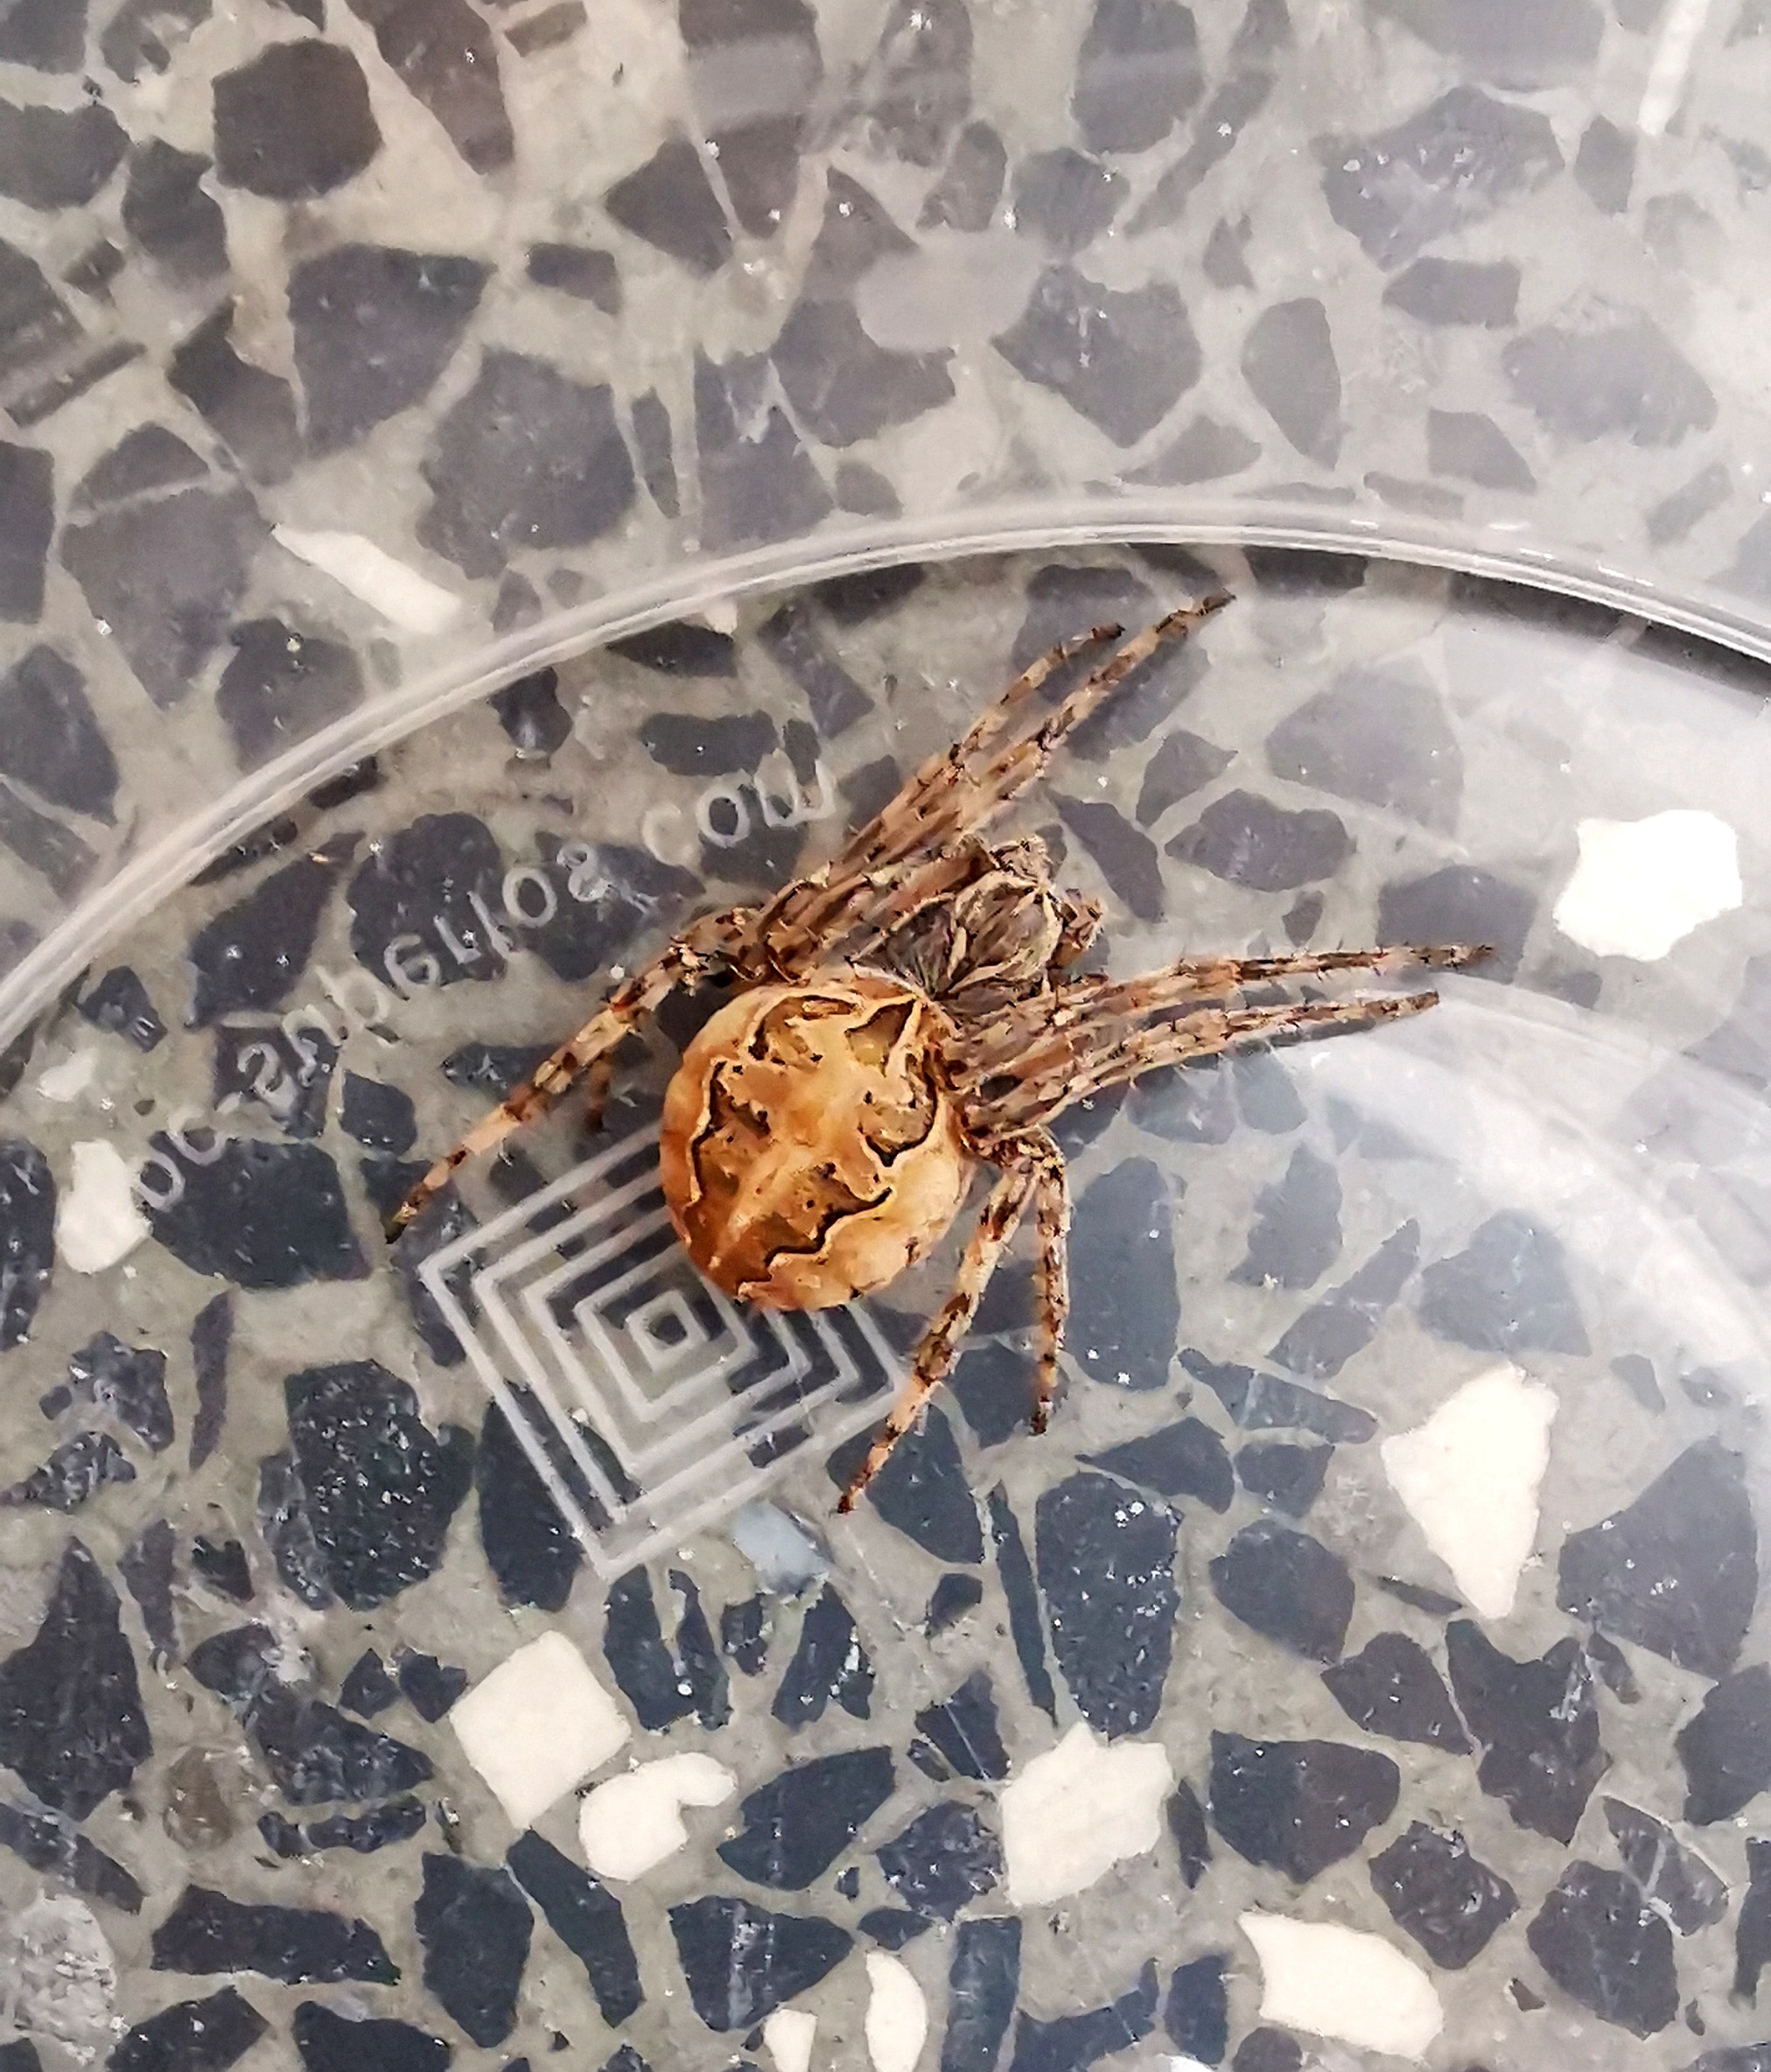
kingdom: Animalia
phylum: Arthropoda
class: Arachnida
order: Araneae
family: Araneidae
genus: Larinioides
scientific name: Larinioides sclopetarius
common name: Bolværksedderkop
